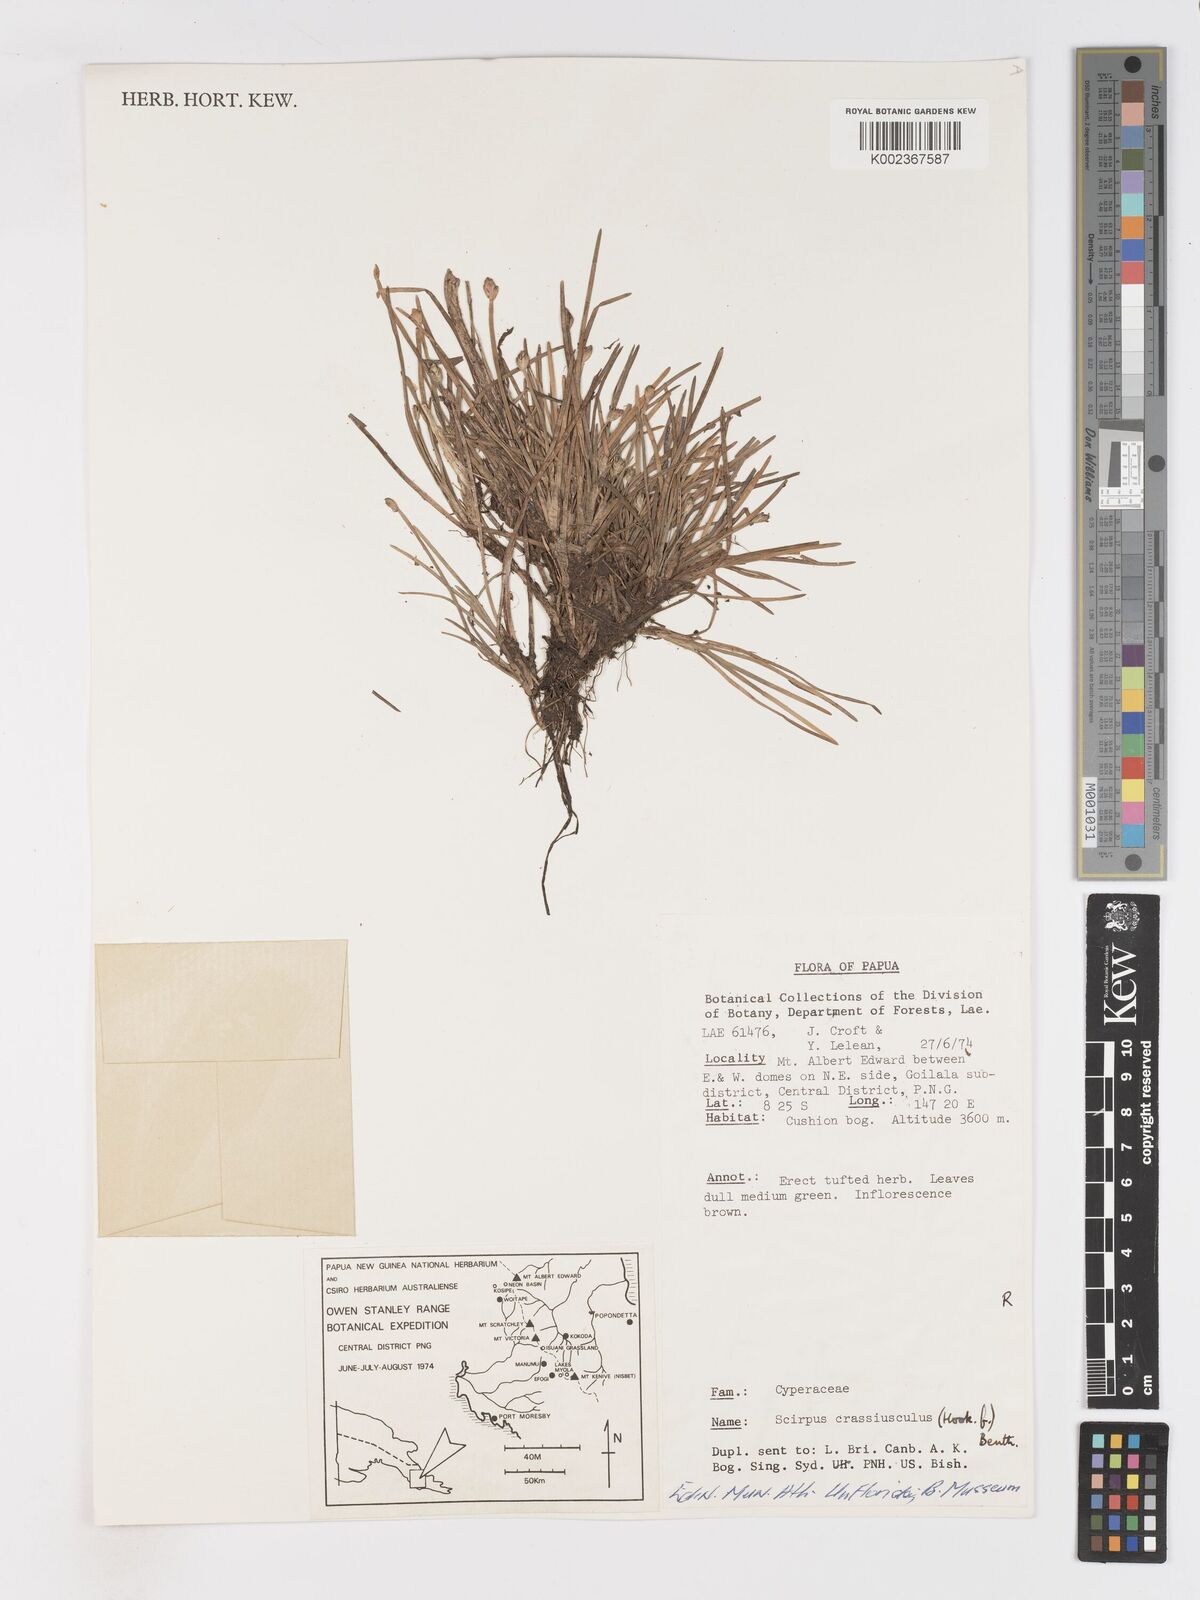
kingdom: Plantae
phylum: Tracheophyta
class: Liliopsida
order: Poales
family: Cyperaceae
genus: Isolepis
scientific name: Isolepis crassiuscula
